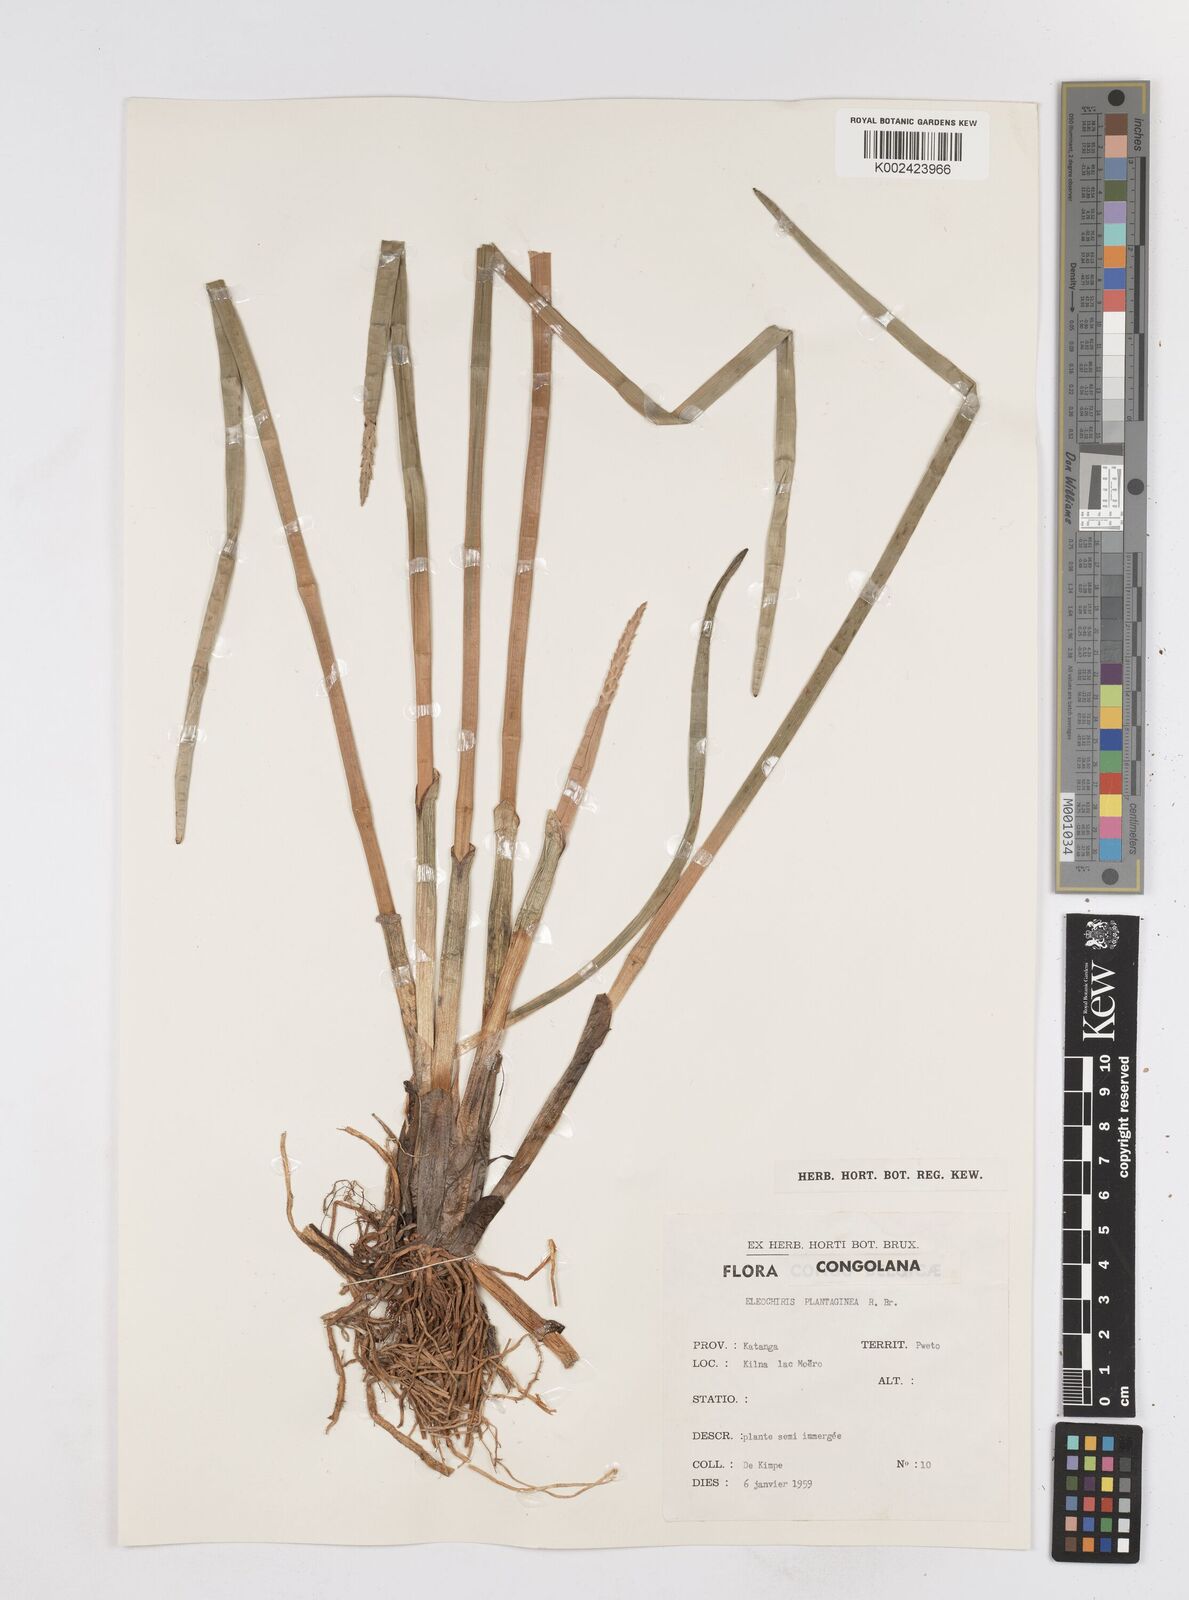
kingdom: Plantae
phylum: Tracheophyta
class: Liliopsida
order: Poales
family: Cyperaceae
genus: Eleocharis
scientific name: Eleocharis dulcis
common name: Chinese water chestnut
